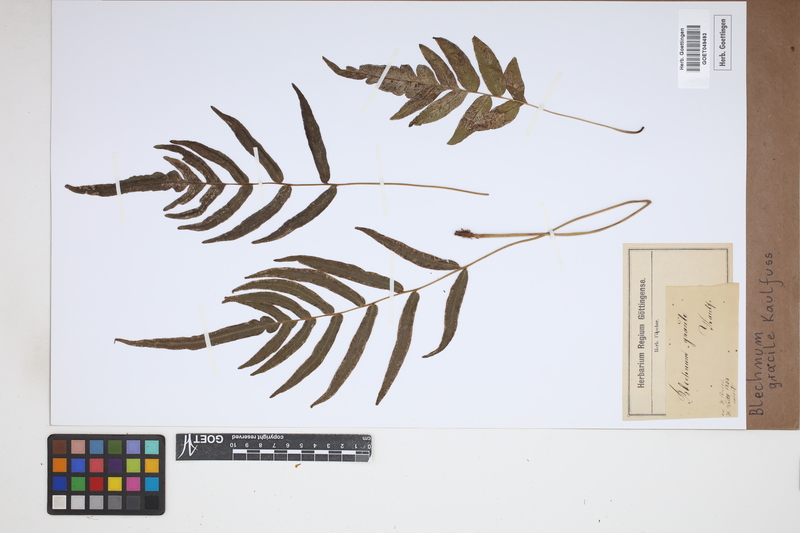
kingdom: Plantae
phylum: Tracheophyta
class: Polypodiopsida
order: Polypodiales
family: Blechnaceae
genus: Blechnum
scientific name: Blechnum gracile
